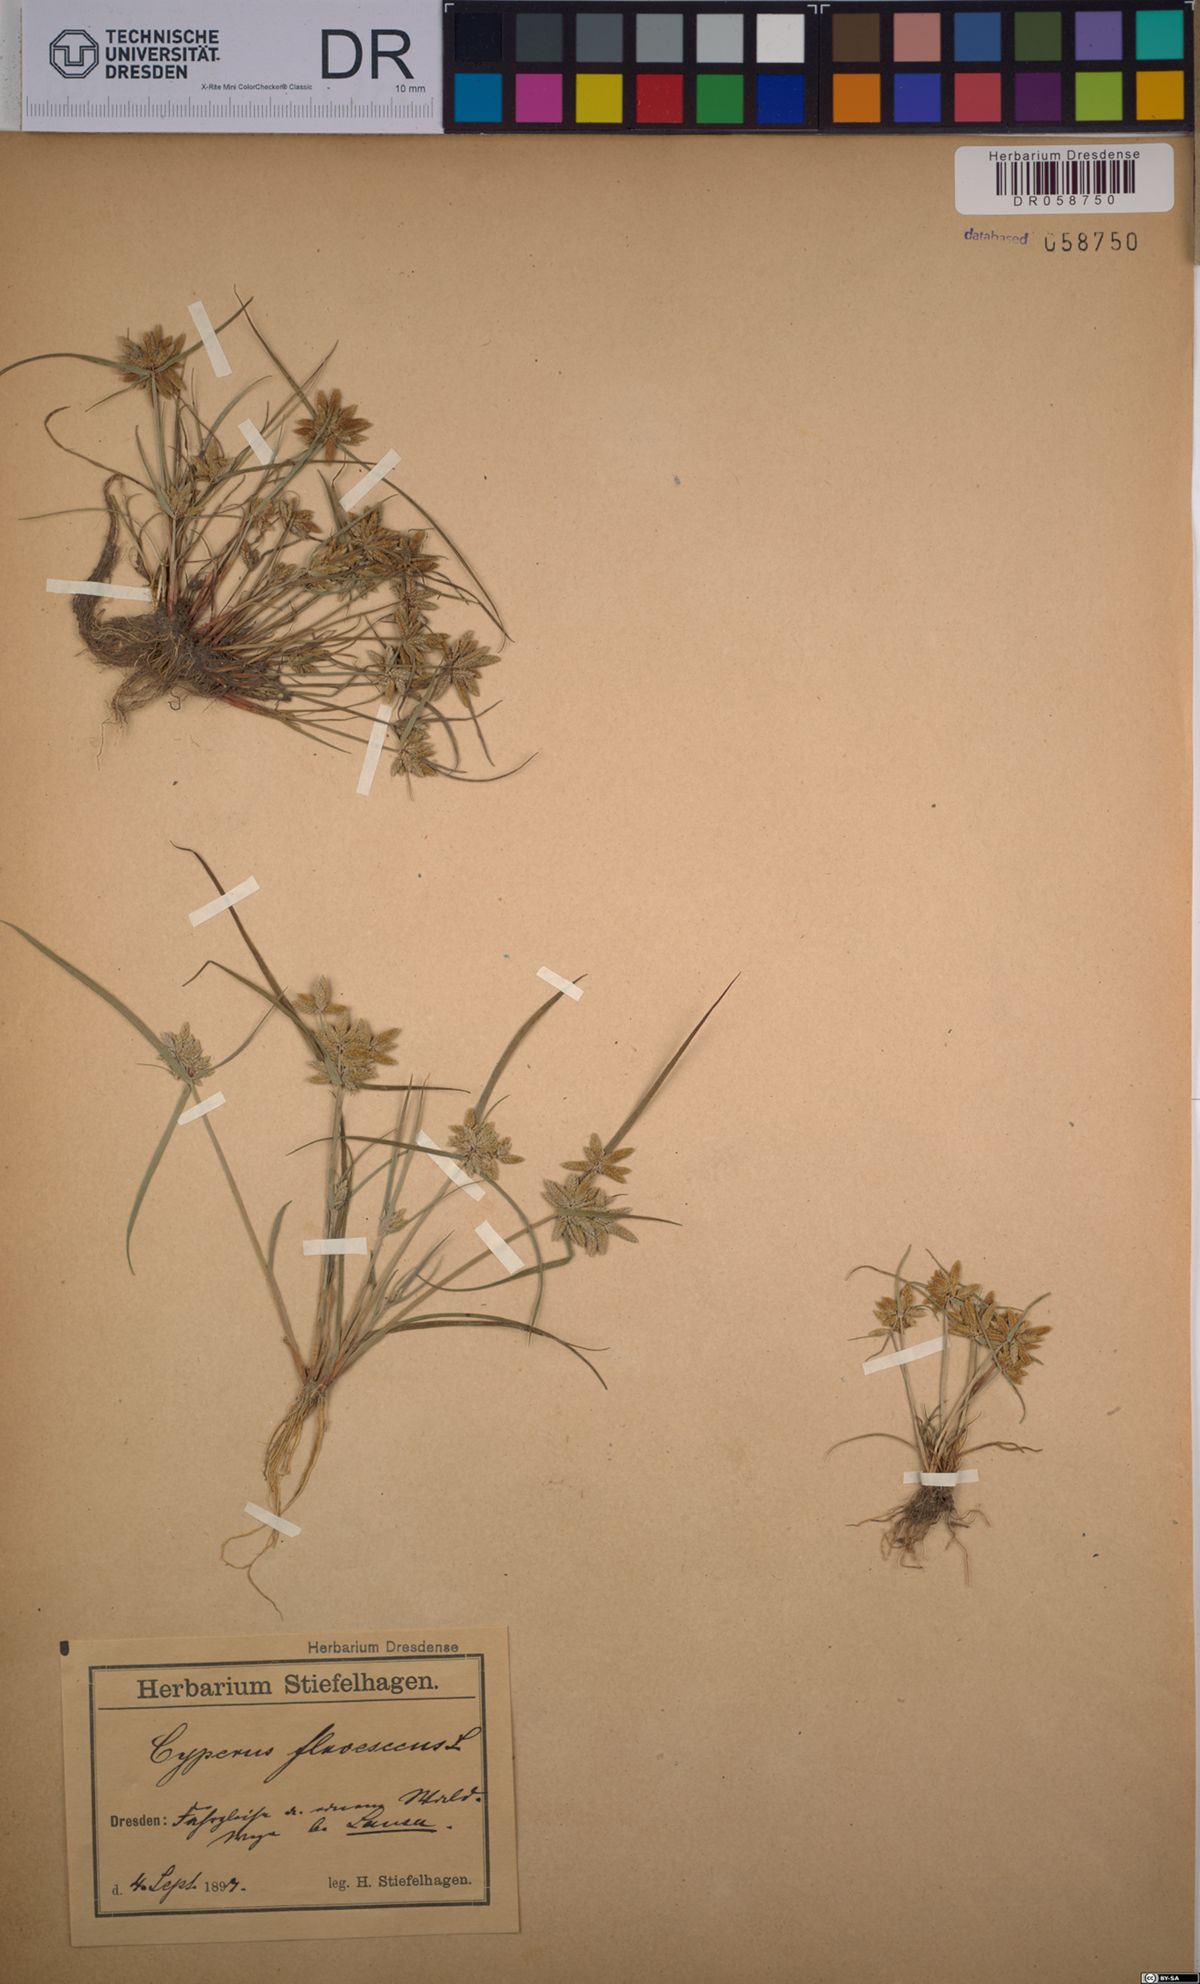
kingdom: Plantae
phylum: Tracheophyta
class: Liliopsida
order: Poales
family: Cyperaceae
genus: Cyperus
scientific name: Cyperus flavescens
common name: Yellow galingale
